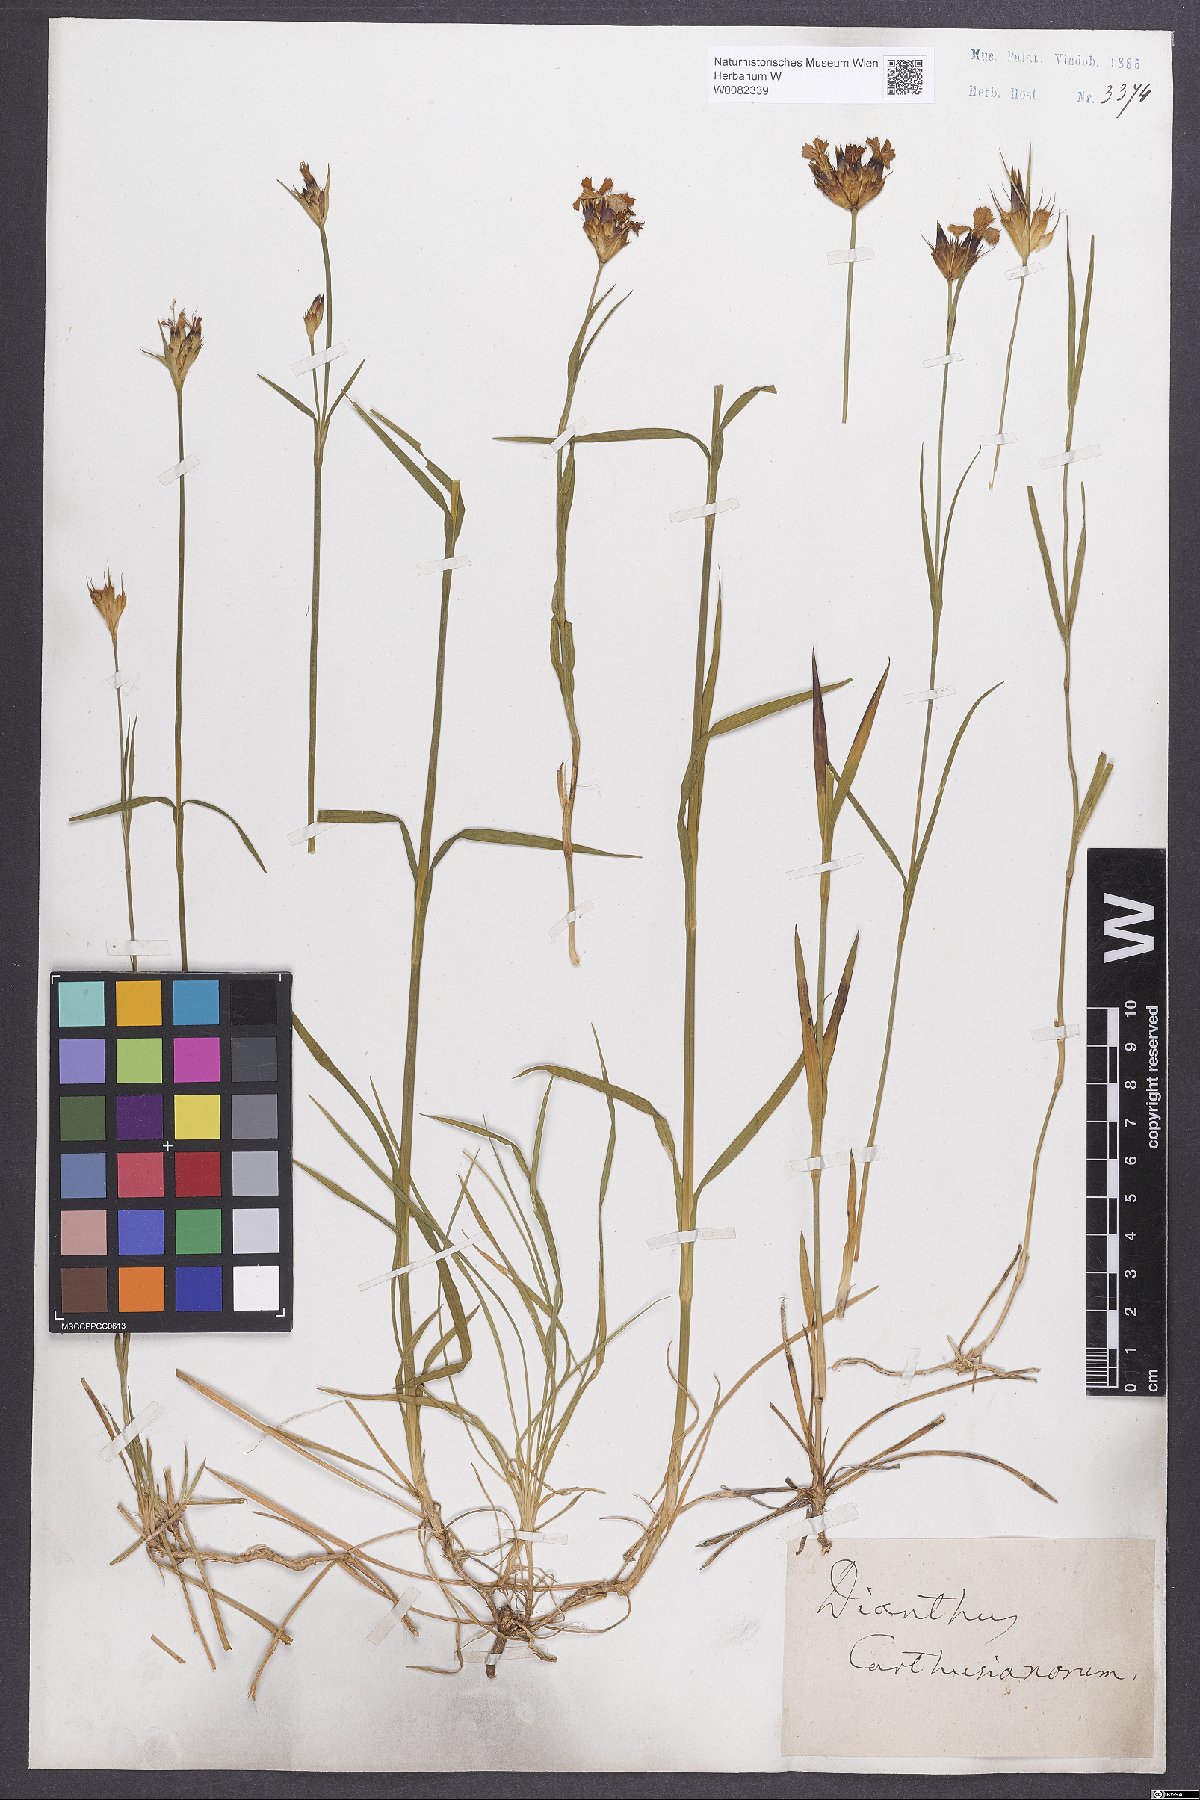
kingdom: Plantae
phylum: Tracheophyta
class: Magnoliopsida
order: Caryophyllales
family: Caryophyllaceae
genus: Dianthus
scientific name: Dianthus carthusianorum
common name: Carthusian pink
